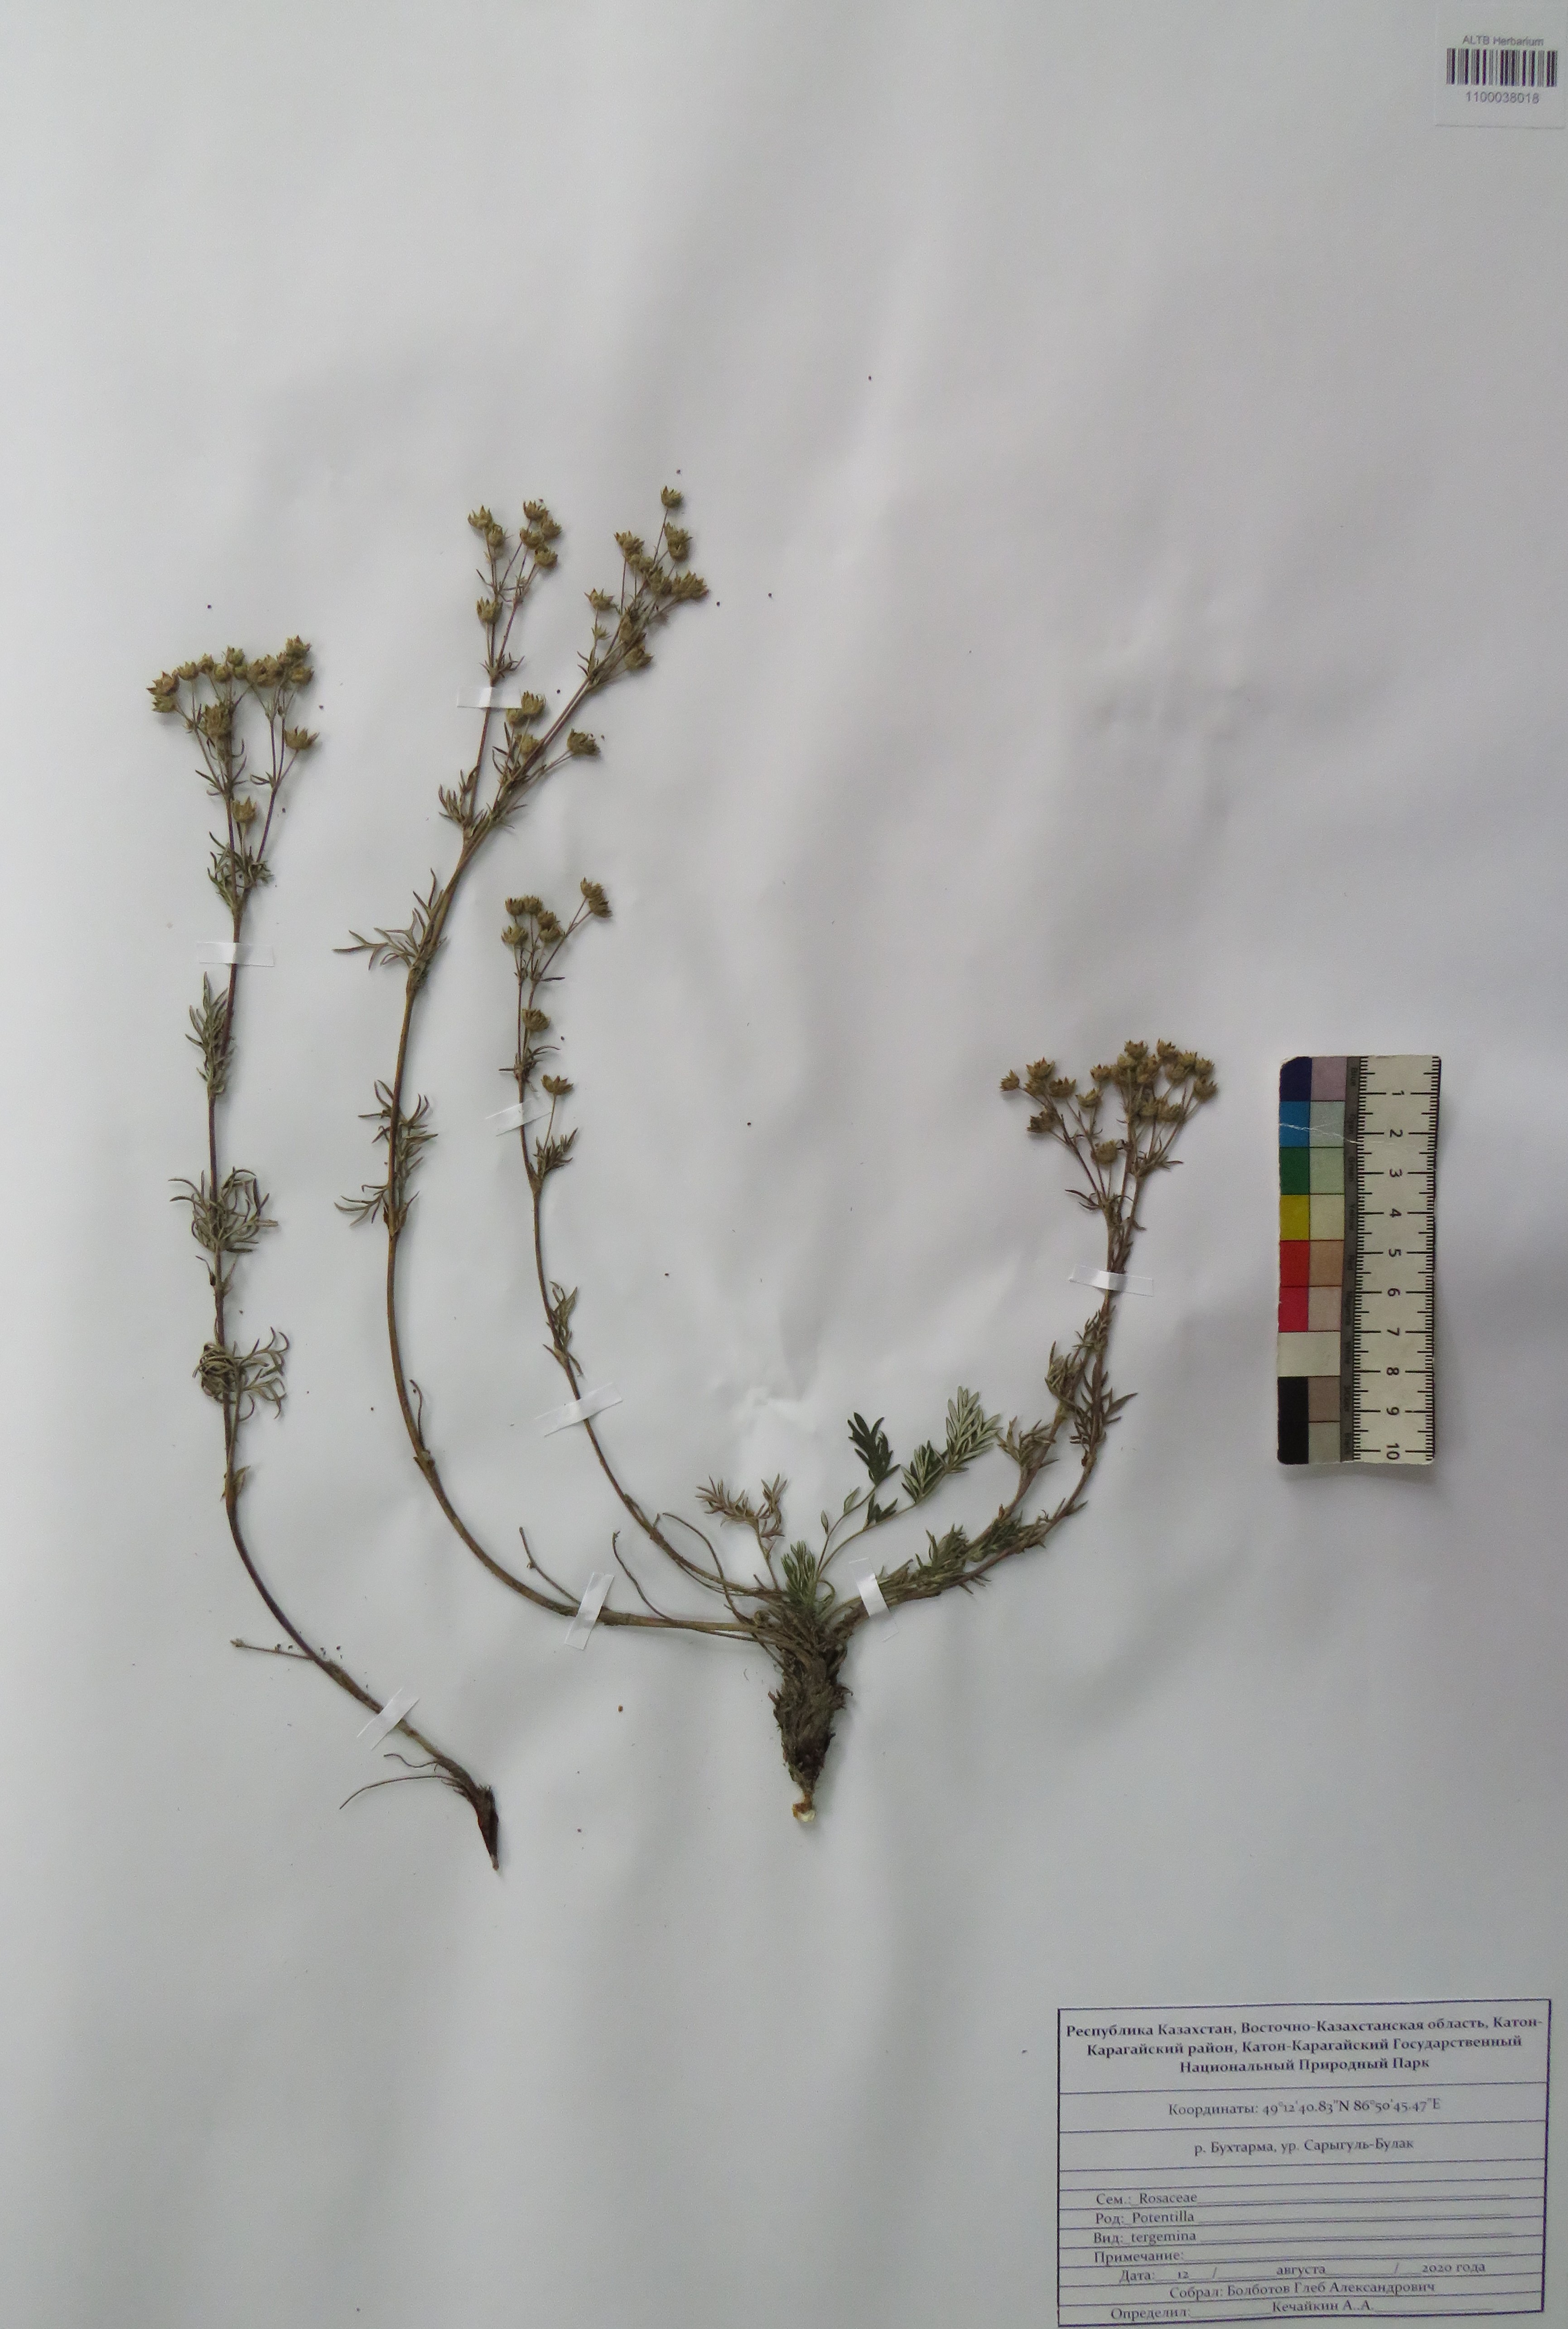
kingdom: Plantae
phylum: Tracheophyta
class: Magnoliopsida
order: Rosales
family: Rosaceae
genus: Potentilla
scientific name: Potentilla tergemina
